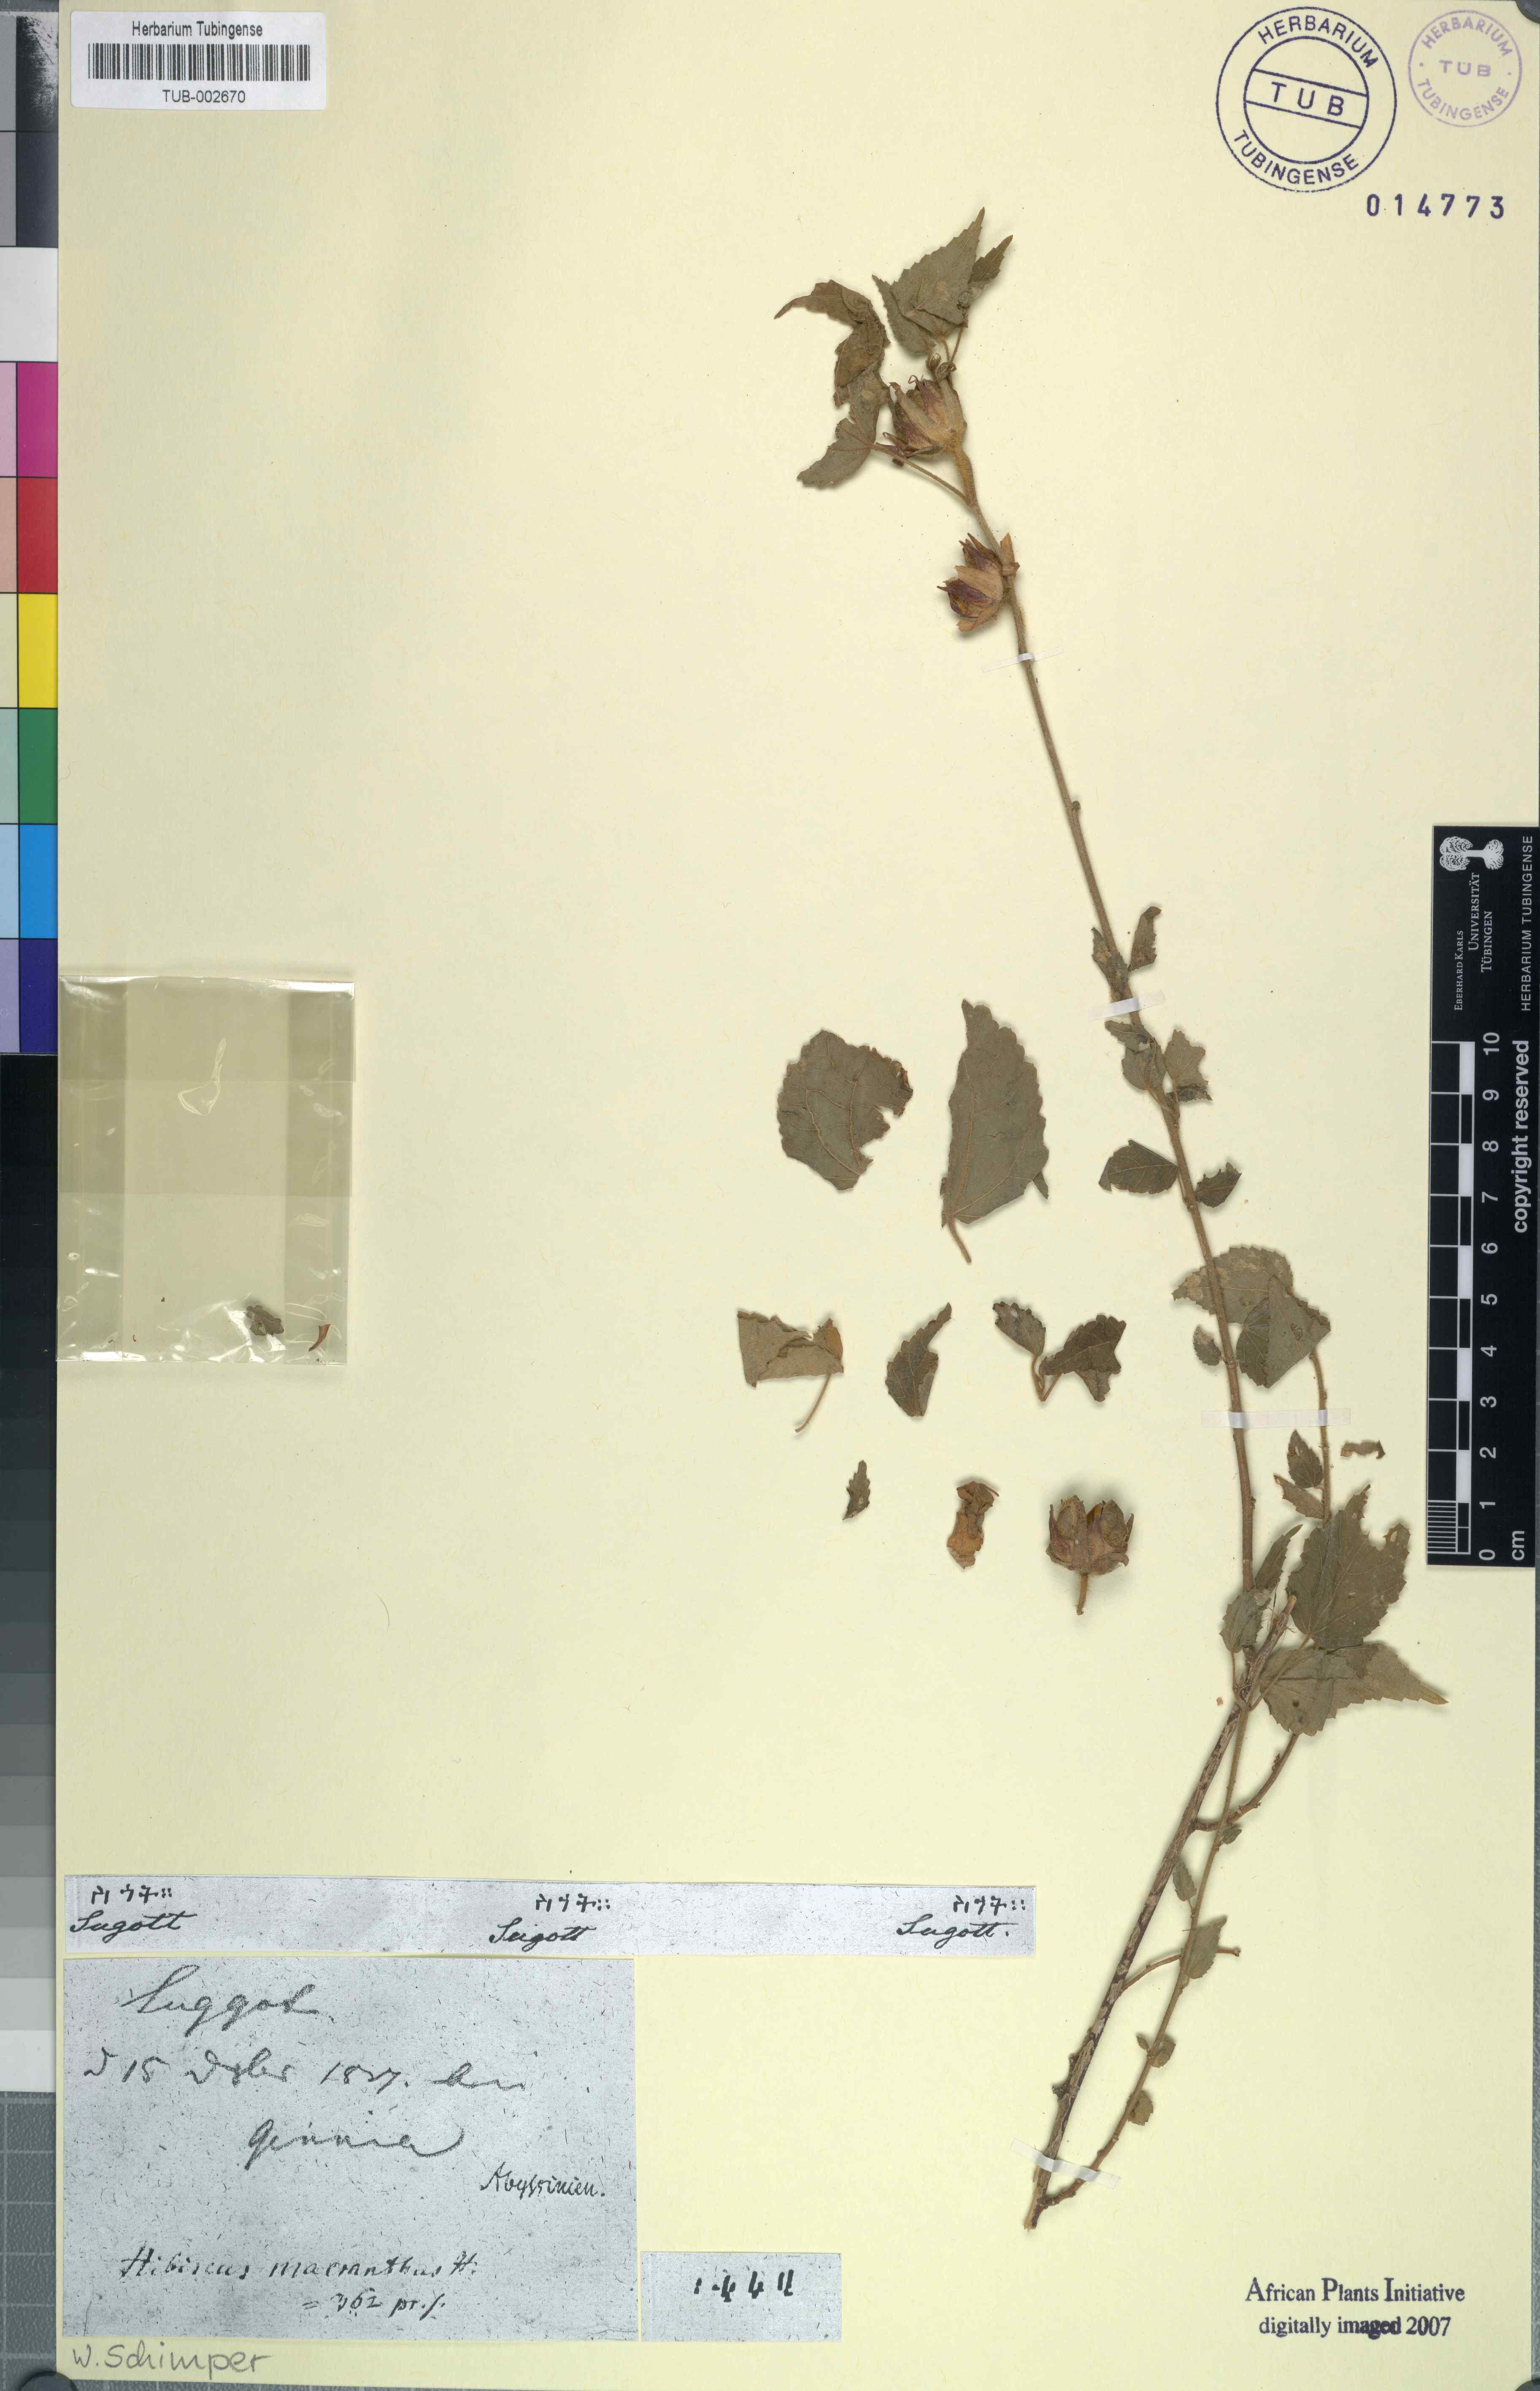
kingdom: Plantae
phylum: Tracheophyta
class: Magnoliopsida
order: Malvales
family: Malvaceae
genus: Hibiscus
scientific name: Hibiscus lunariifolius
